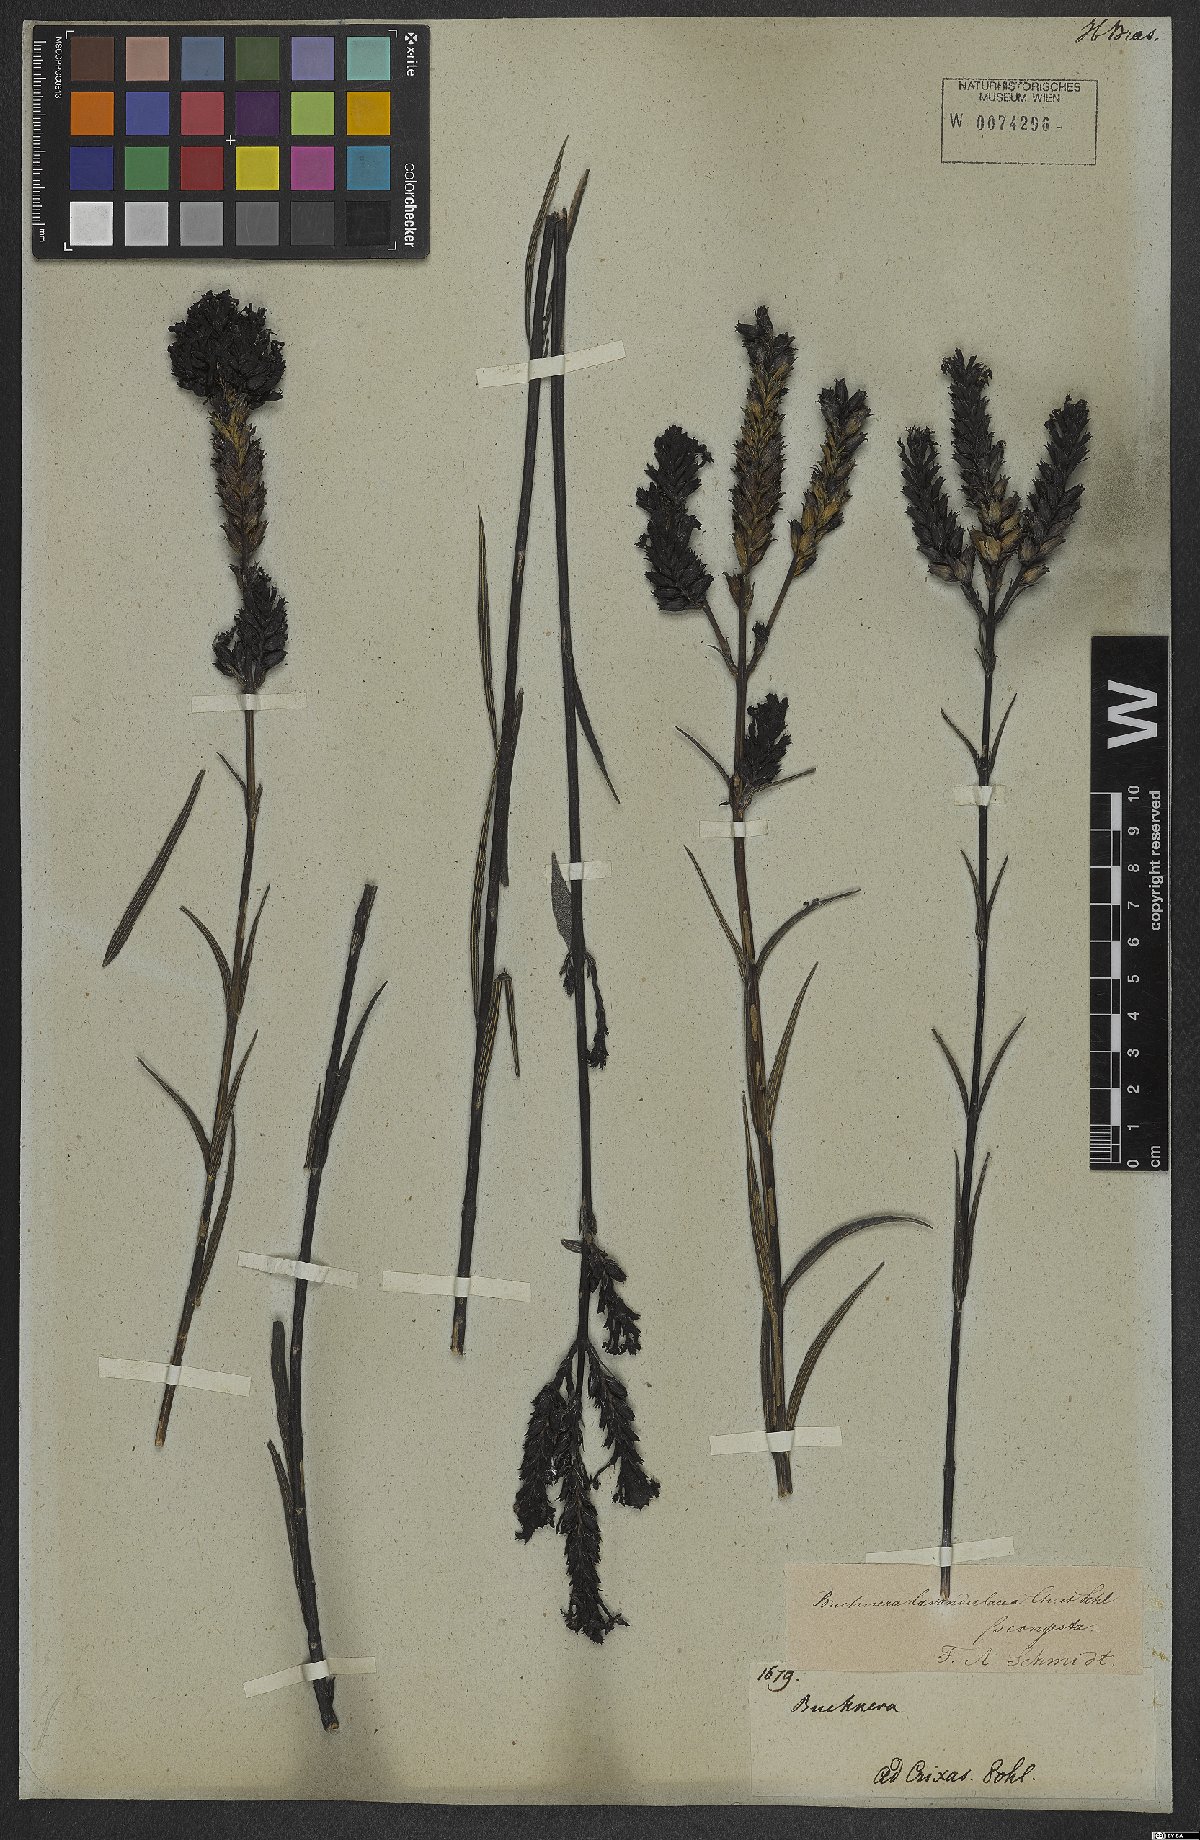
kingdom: Plantae
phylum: Tracheophyta
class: Magnoliopsida
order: Lamiales
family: Orobanchaceae
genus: Buchnera
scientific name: Buchnera lavandulacea
